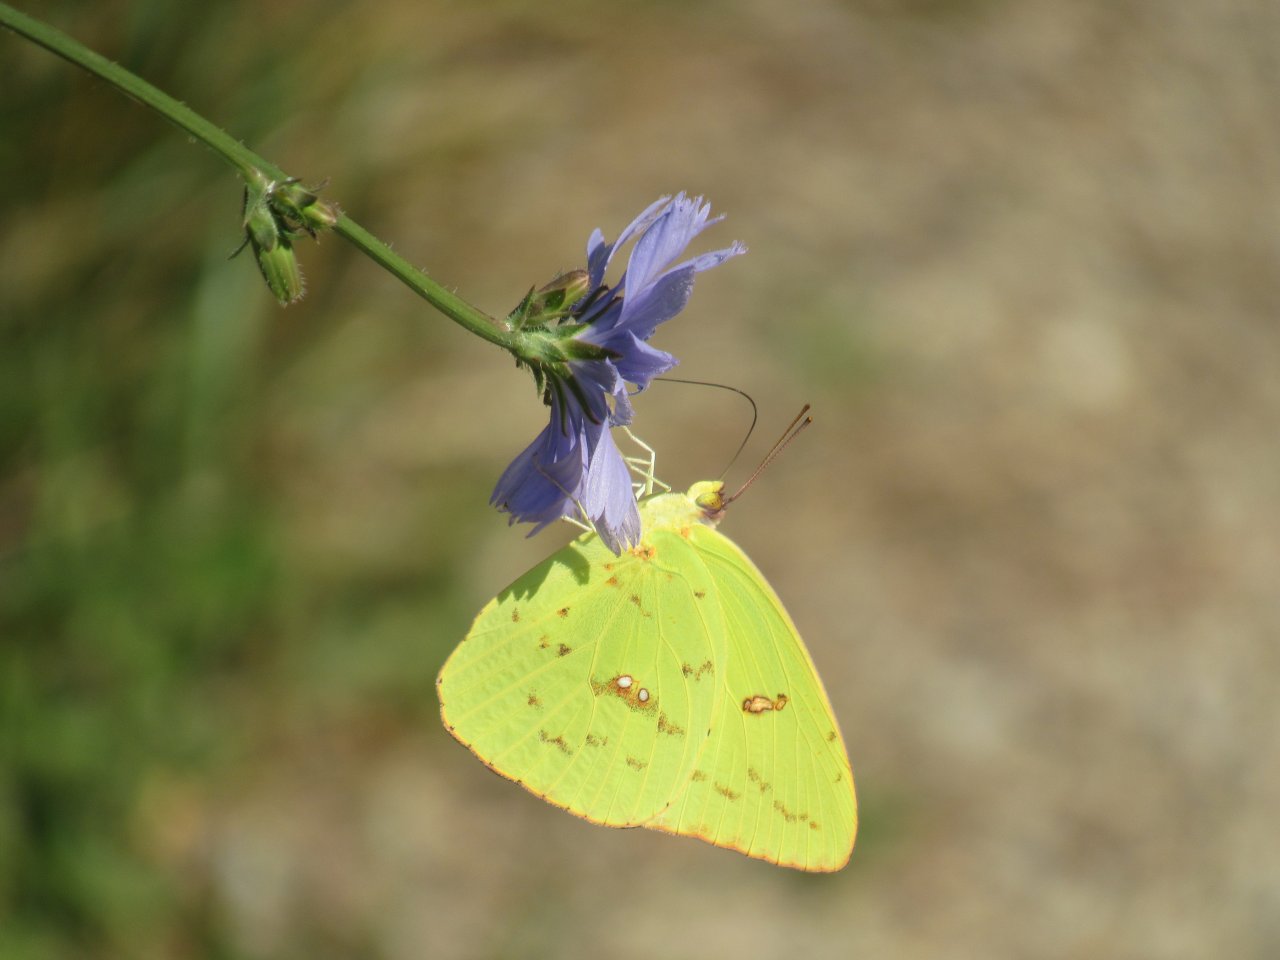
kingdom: Animalia
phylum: Arthropoda
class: Insecta
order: Lepidoptera
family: Pieridae
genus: Phoebis
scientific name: Phoebis sennae
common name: Cloudless Sulphur
